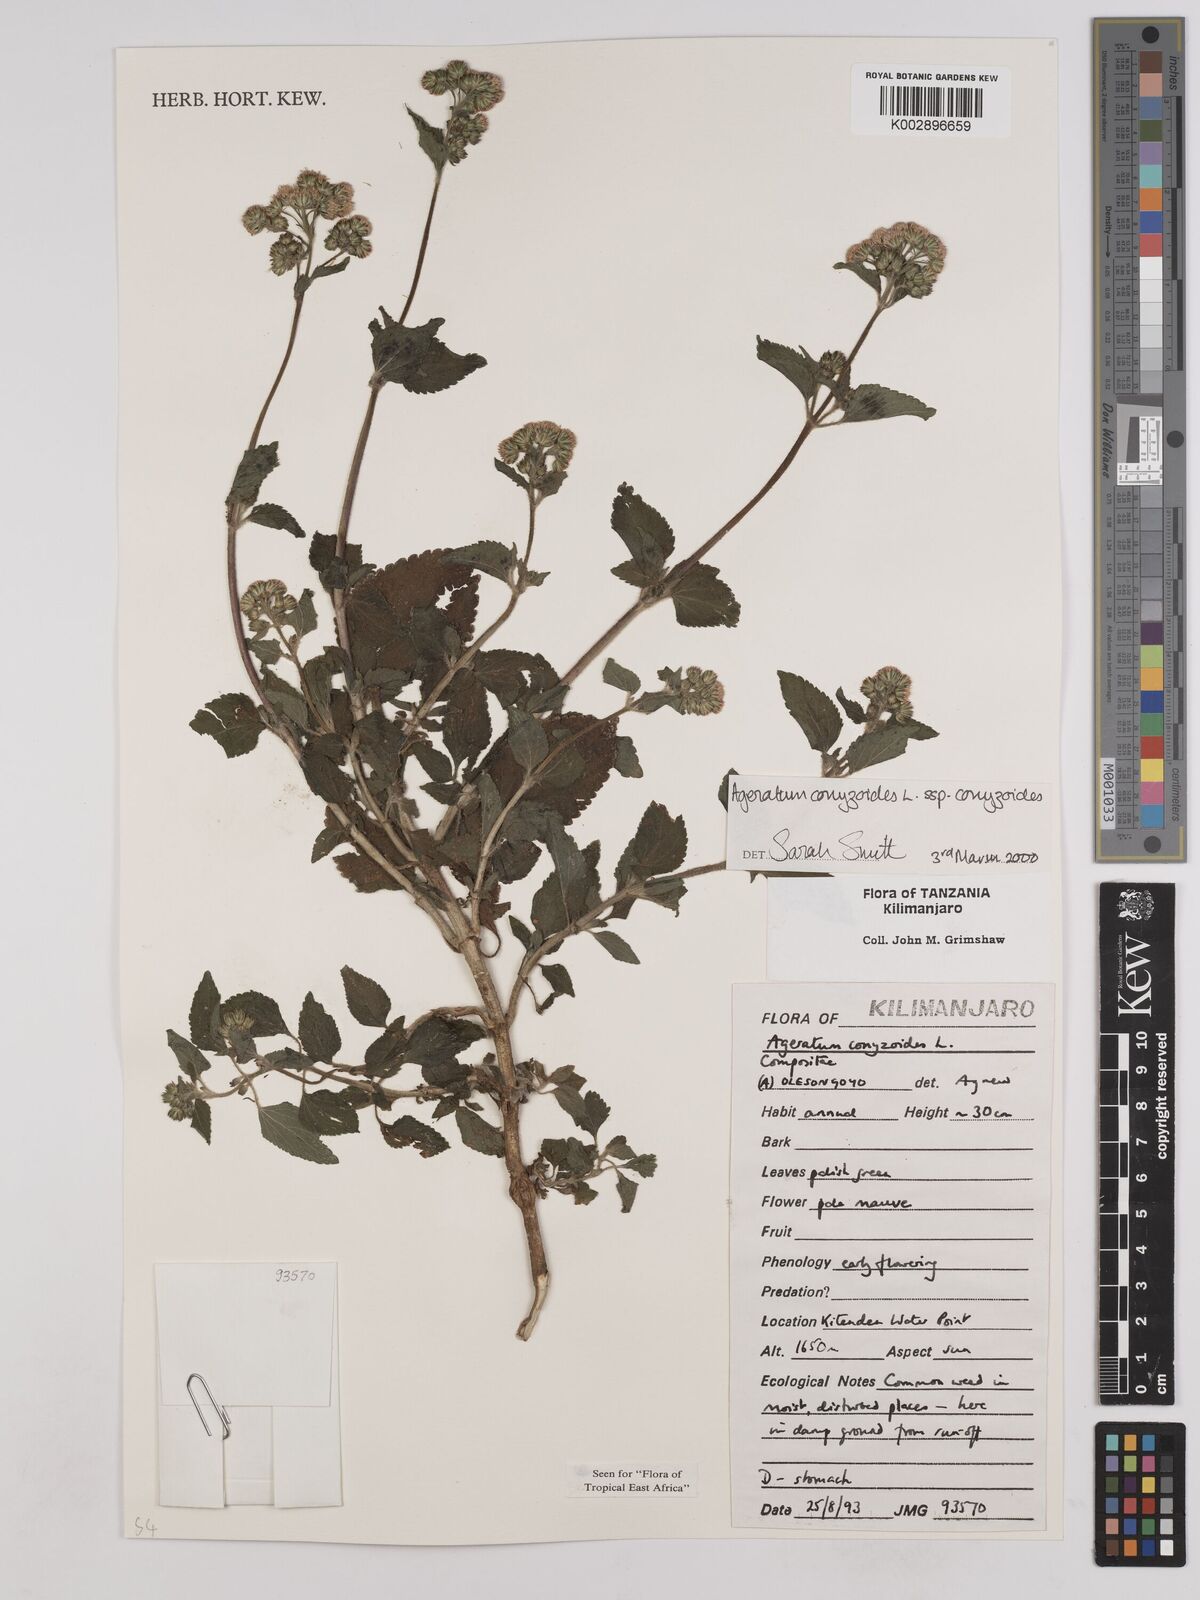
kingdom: Plantae
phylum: Tracheophyta
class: Magnoliopsida
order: Asterales
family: Asteraceae
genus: Ageratum
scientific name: Ageratum conyzoides
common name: Tropical whiteweed
